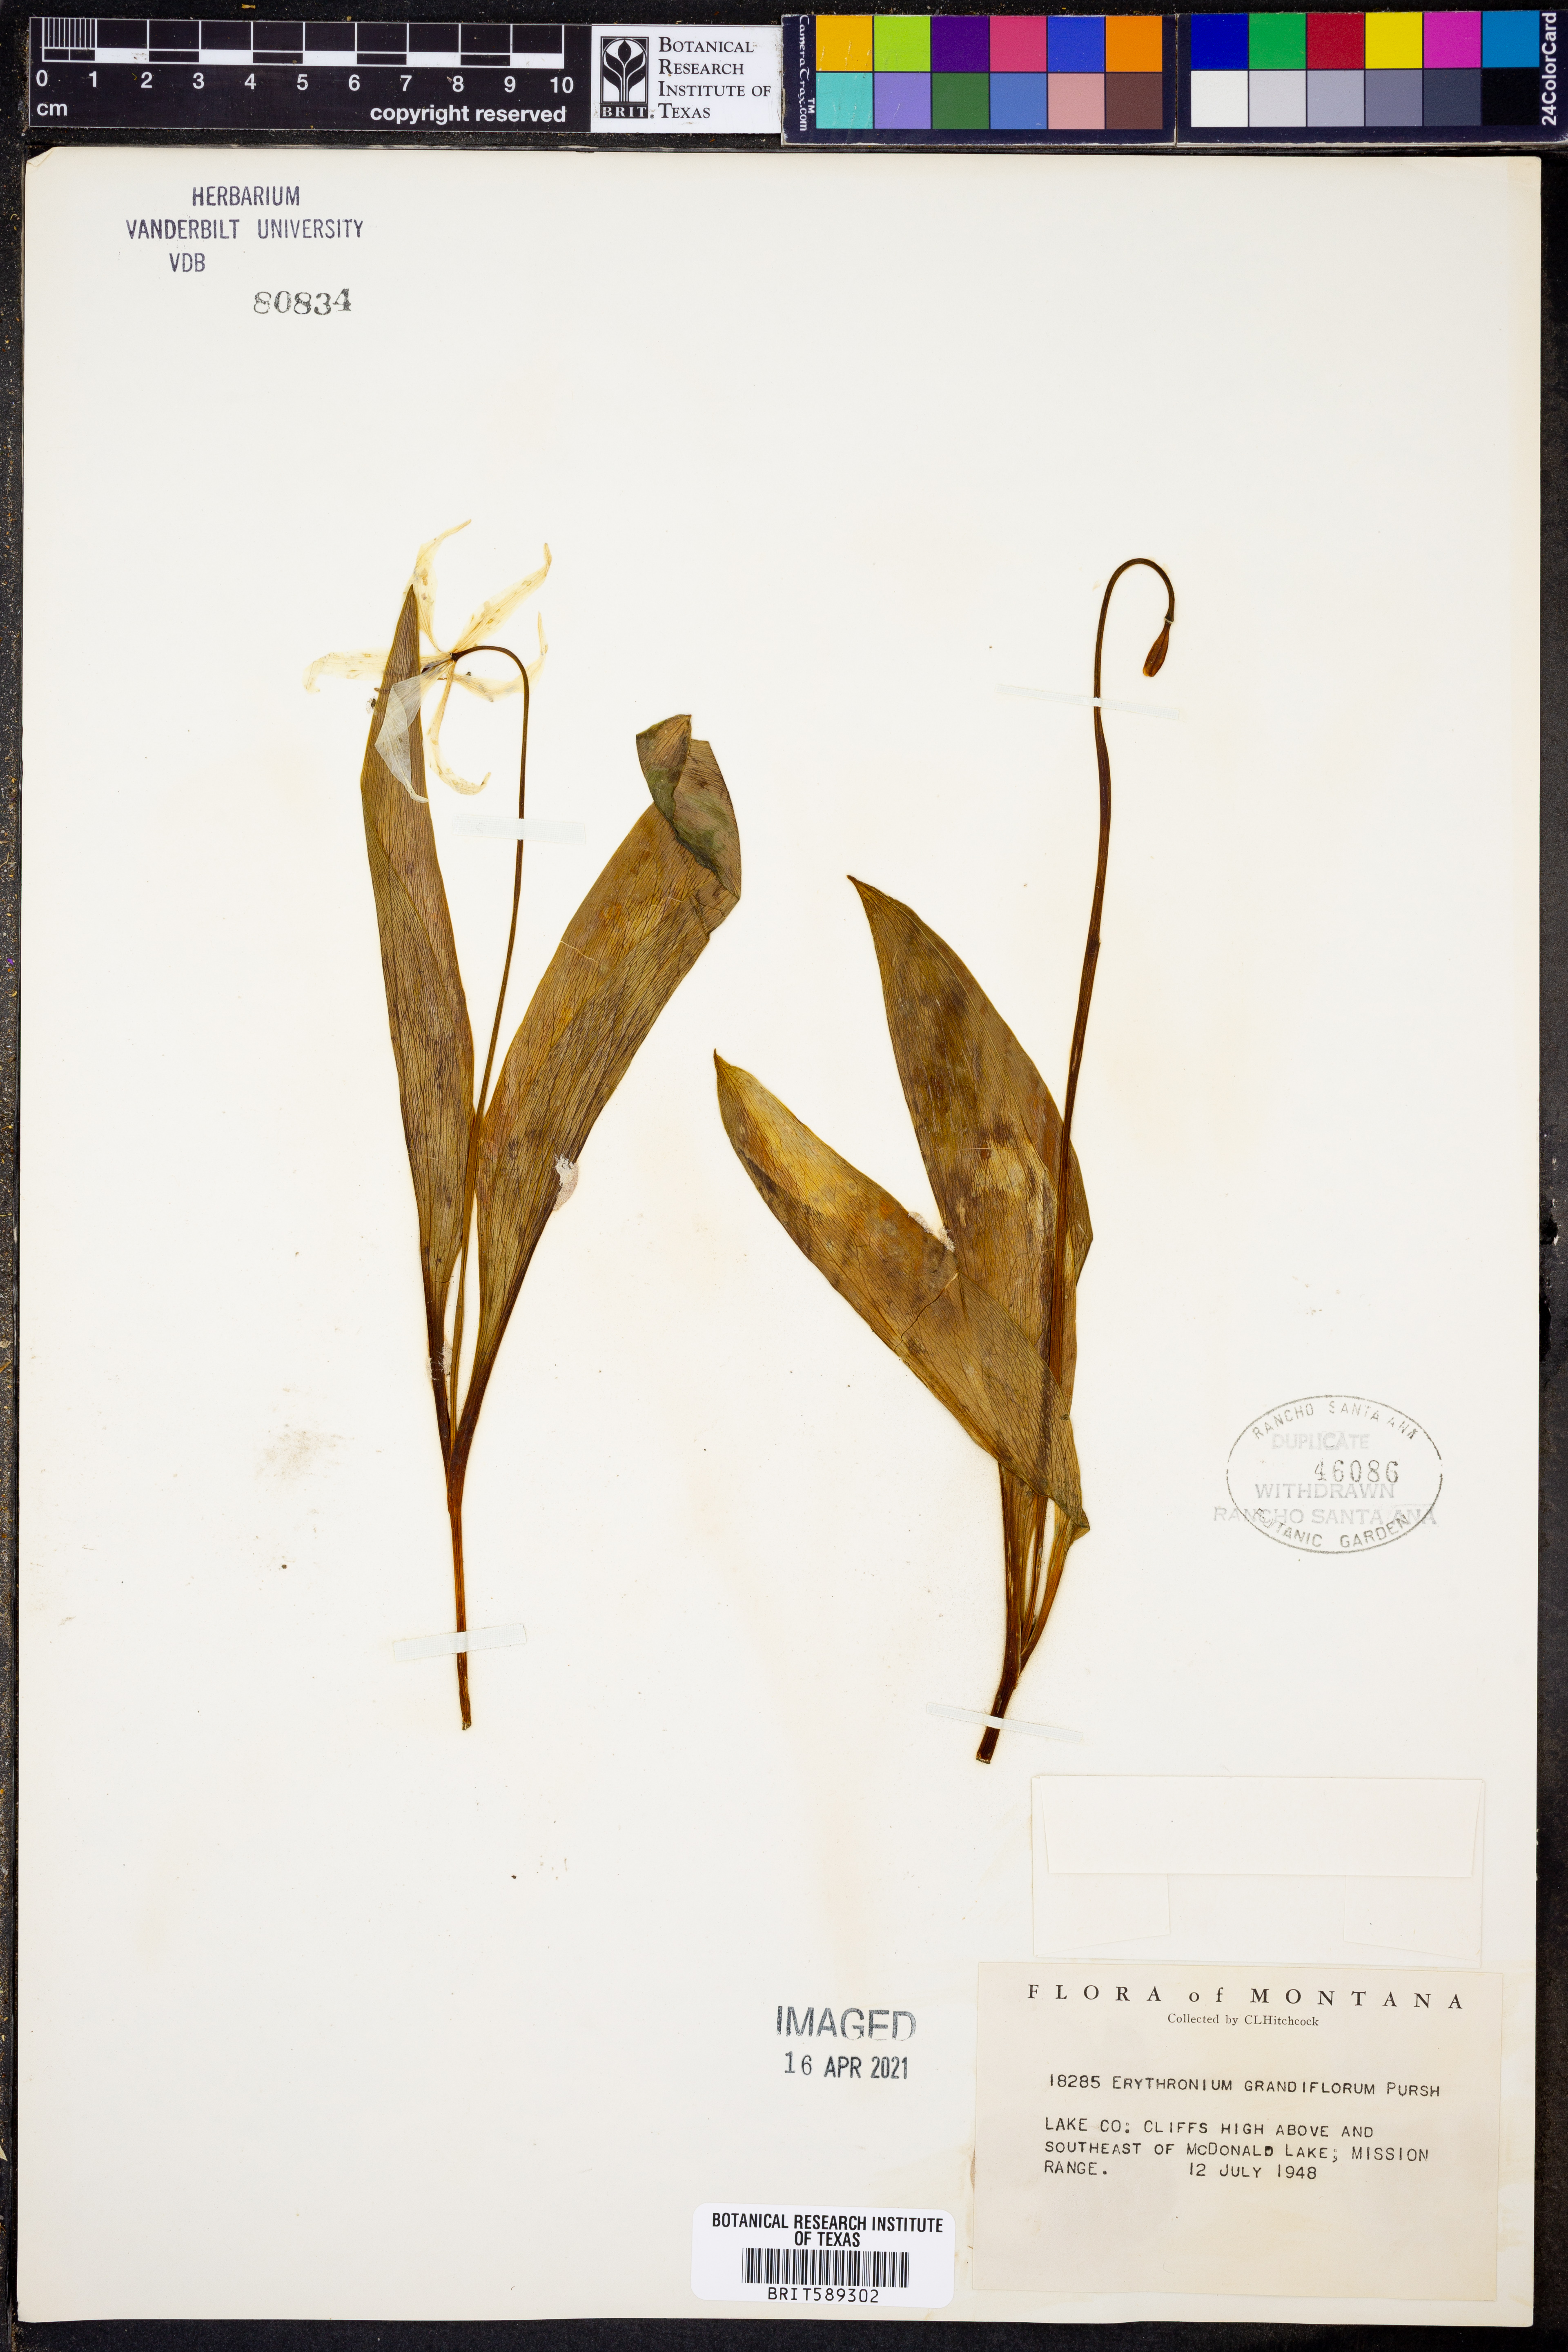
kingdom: Plantae
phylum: Tracheophyta
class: Liliopsida
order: Liliales
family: Liliaceae
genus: Erythronium
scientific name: Erythronium grandiflorum
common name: Avalanche-lily
